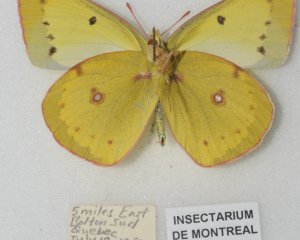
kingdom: Animalia
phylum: Arthropoda
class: Insecta
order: Lepidoptera
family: Pieridae
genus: Colias
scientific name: Colias philodice
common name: Clouded Sulphur
